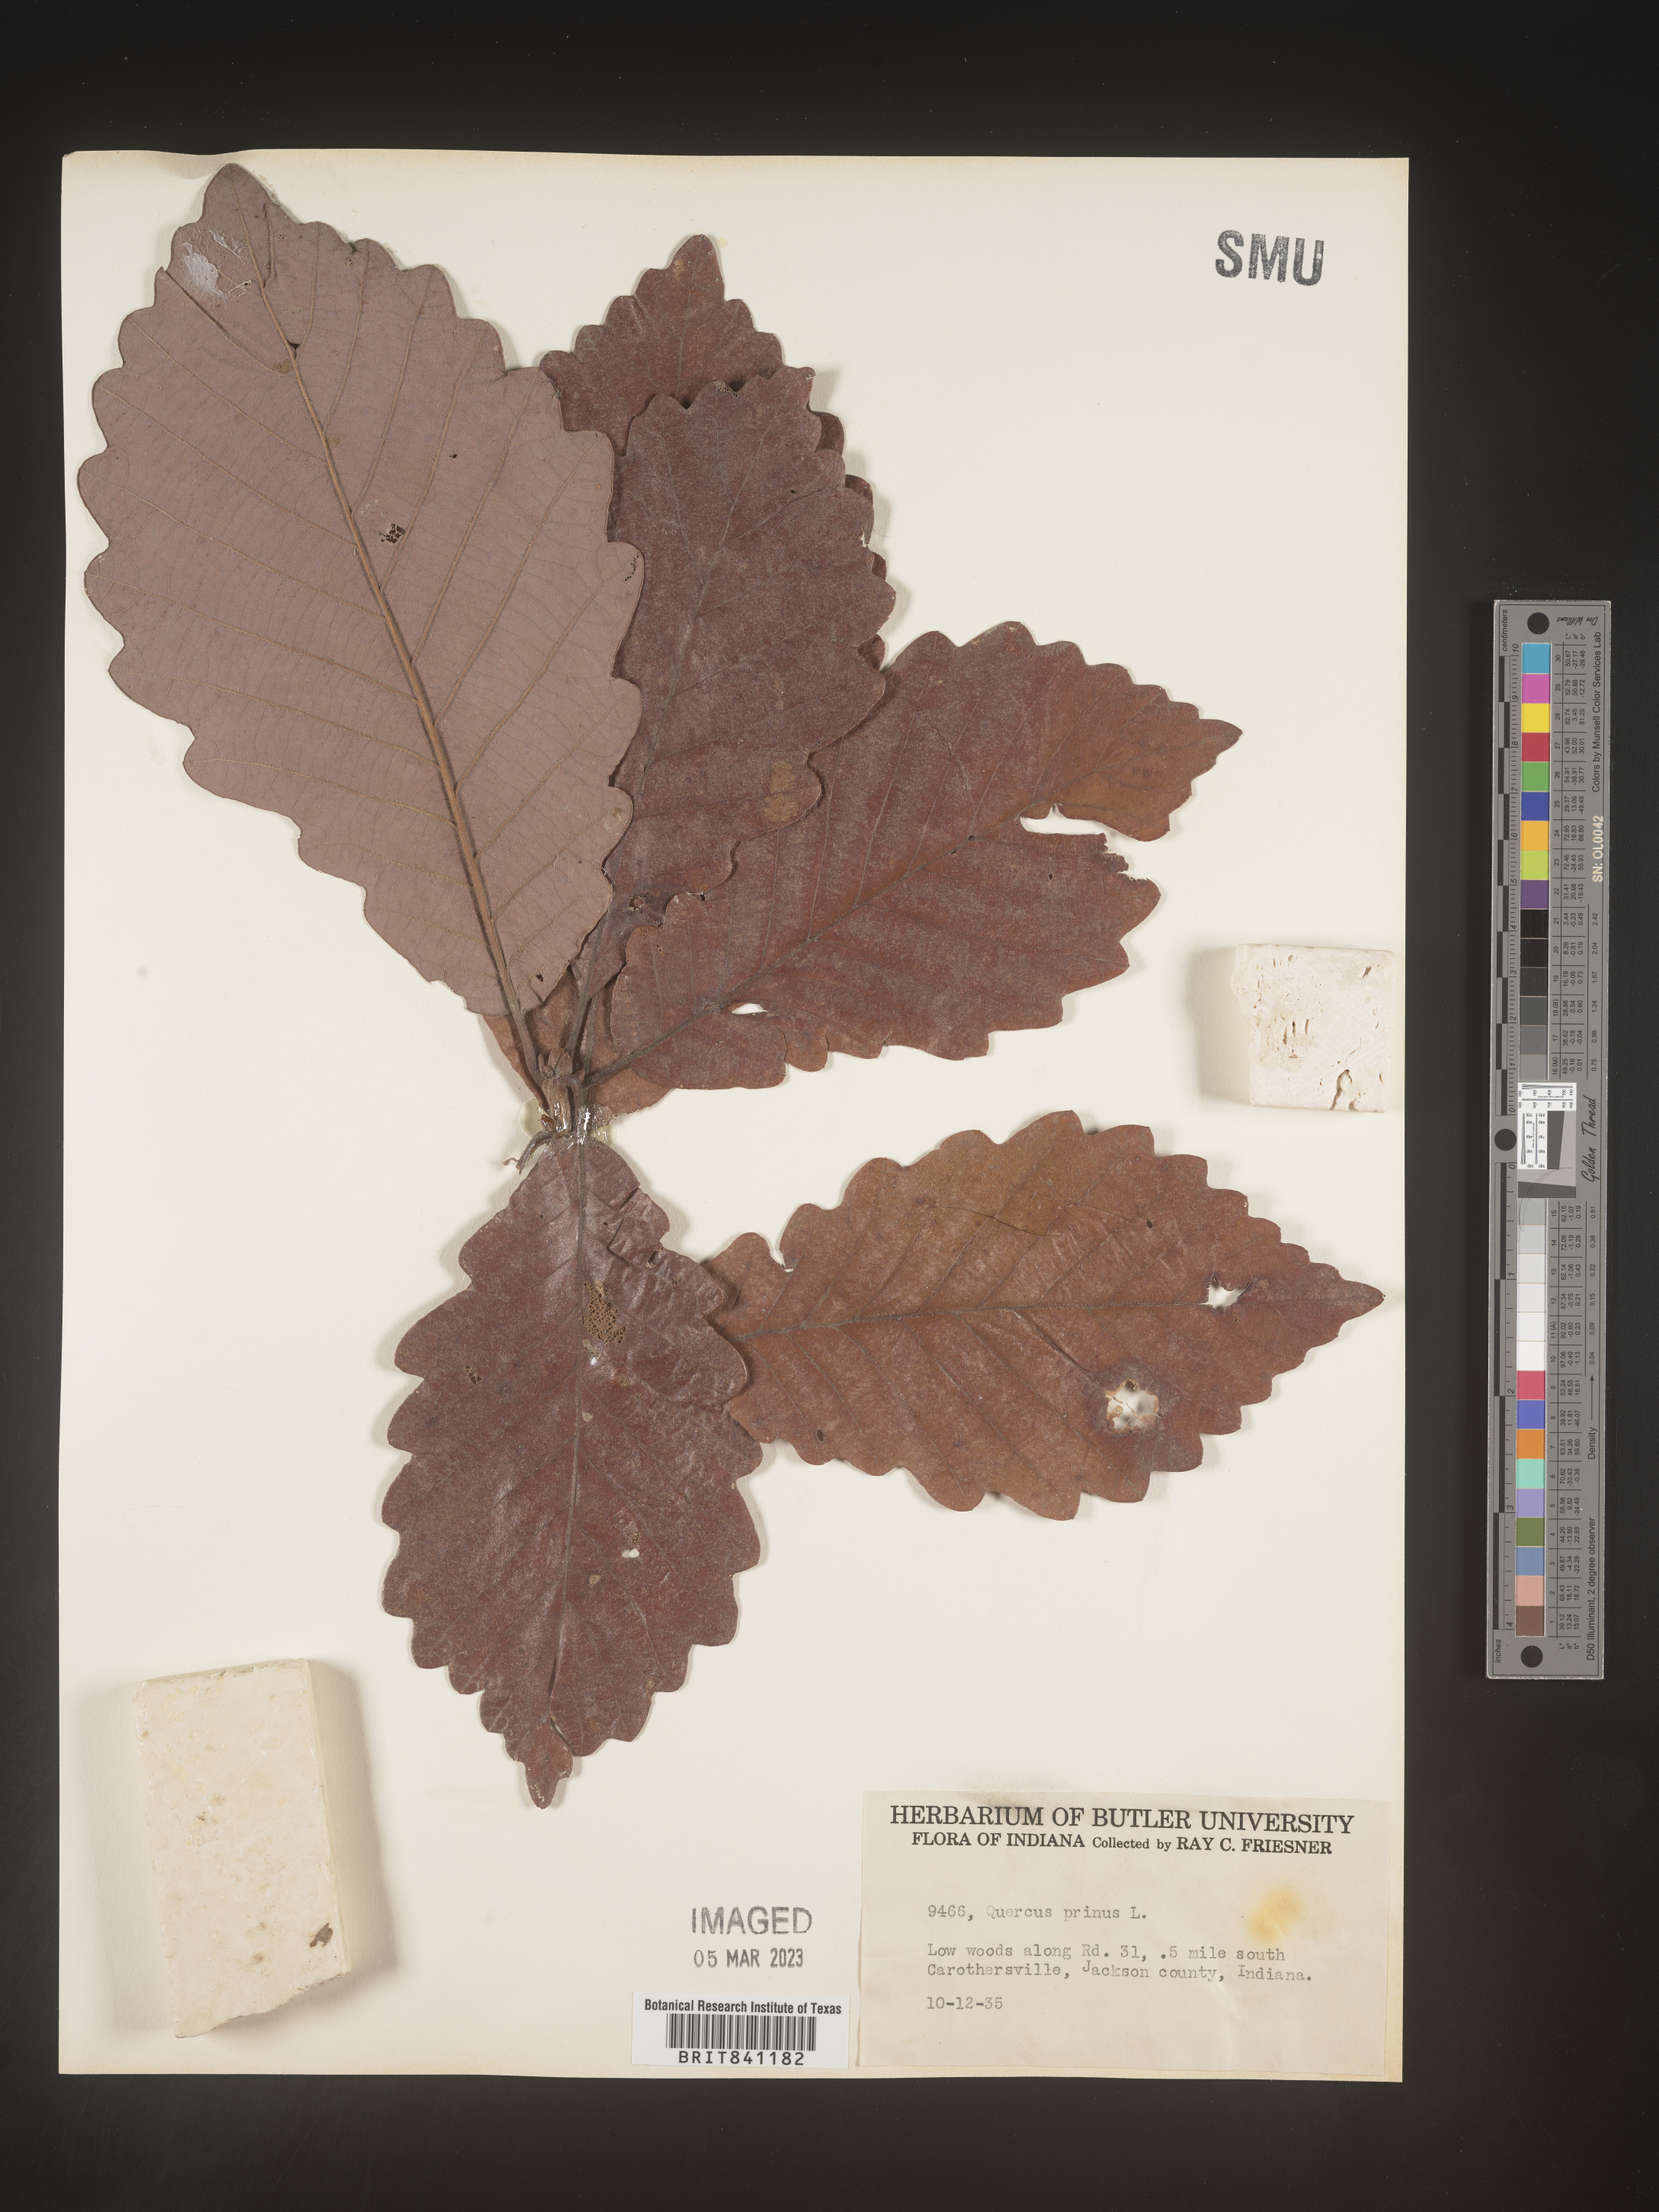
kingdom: Plantae
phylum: Tracheophyta
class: Magnoliopsida
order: Fagales
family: Fagaceae
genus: Quercus
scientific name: Quercus michauxii
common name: Swamp chestnut oak
